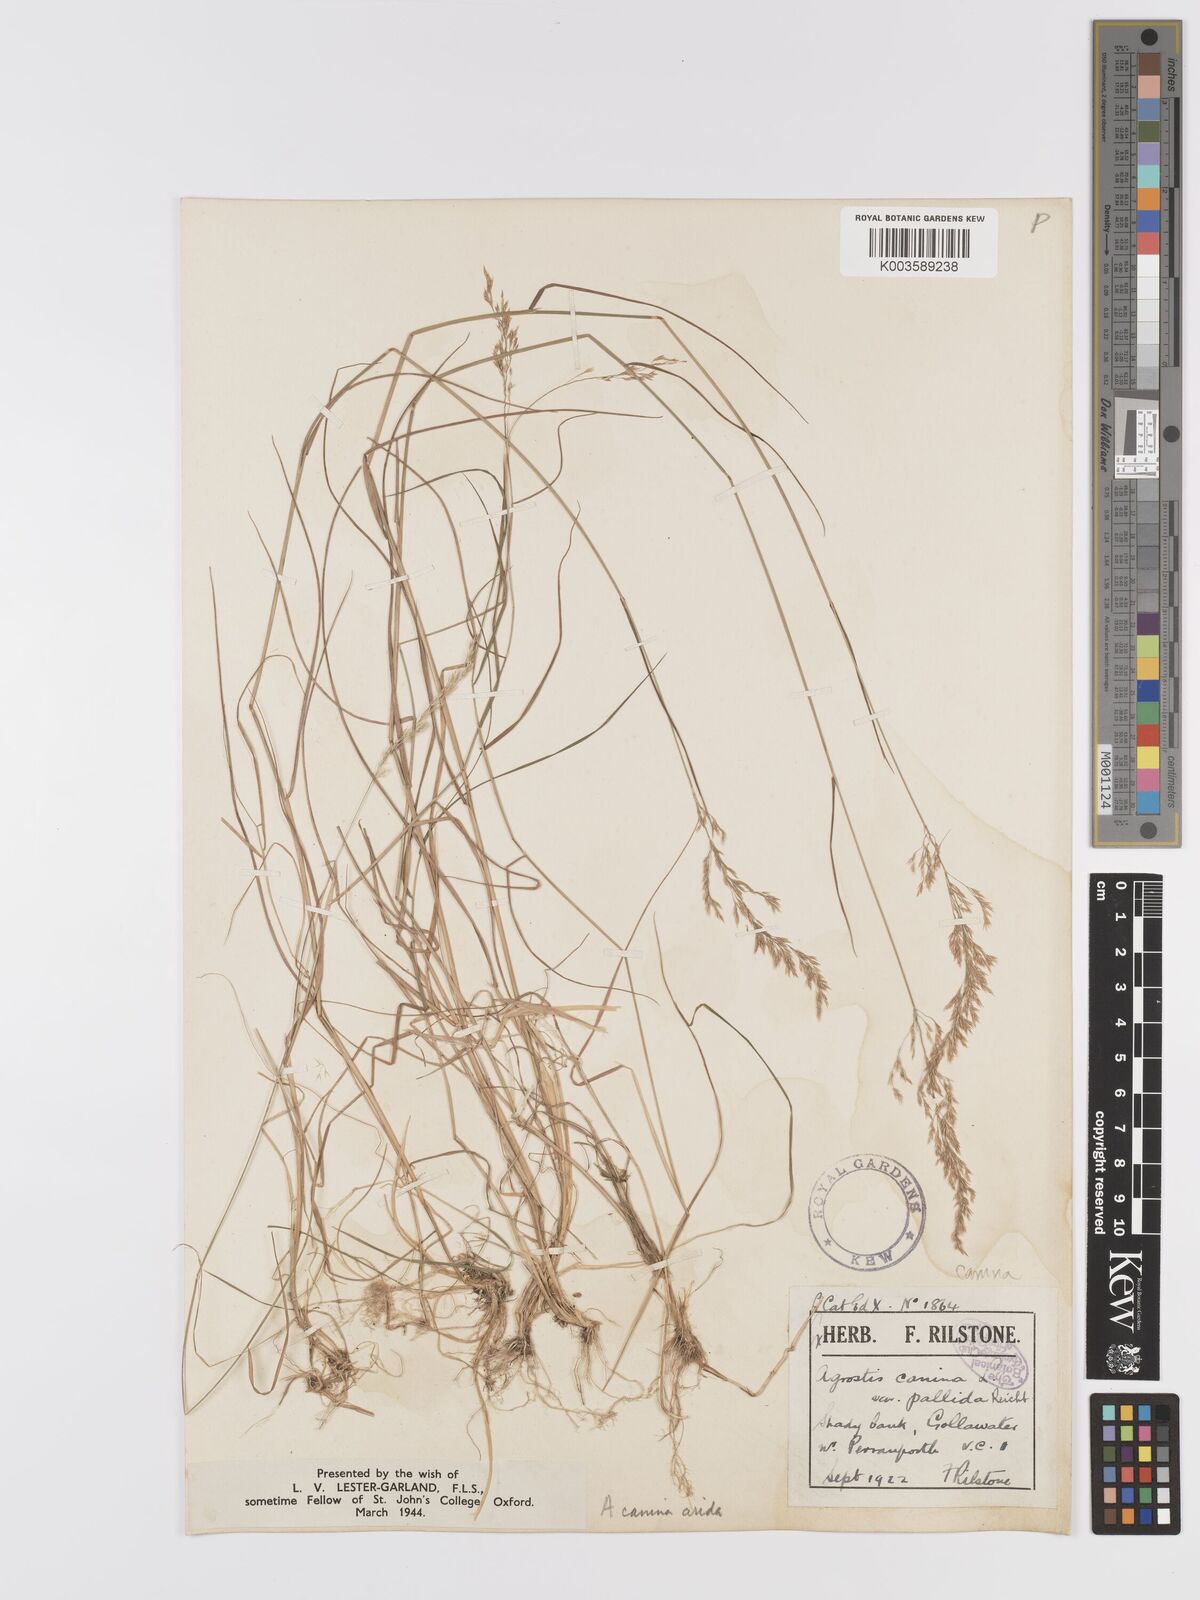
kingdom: Plantae
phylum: Tracheophyta
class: Liliopsida
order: Poales
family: Poaceae
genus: Agrostis
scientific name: Agrostis canina
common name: Velvet bent
